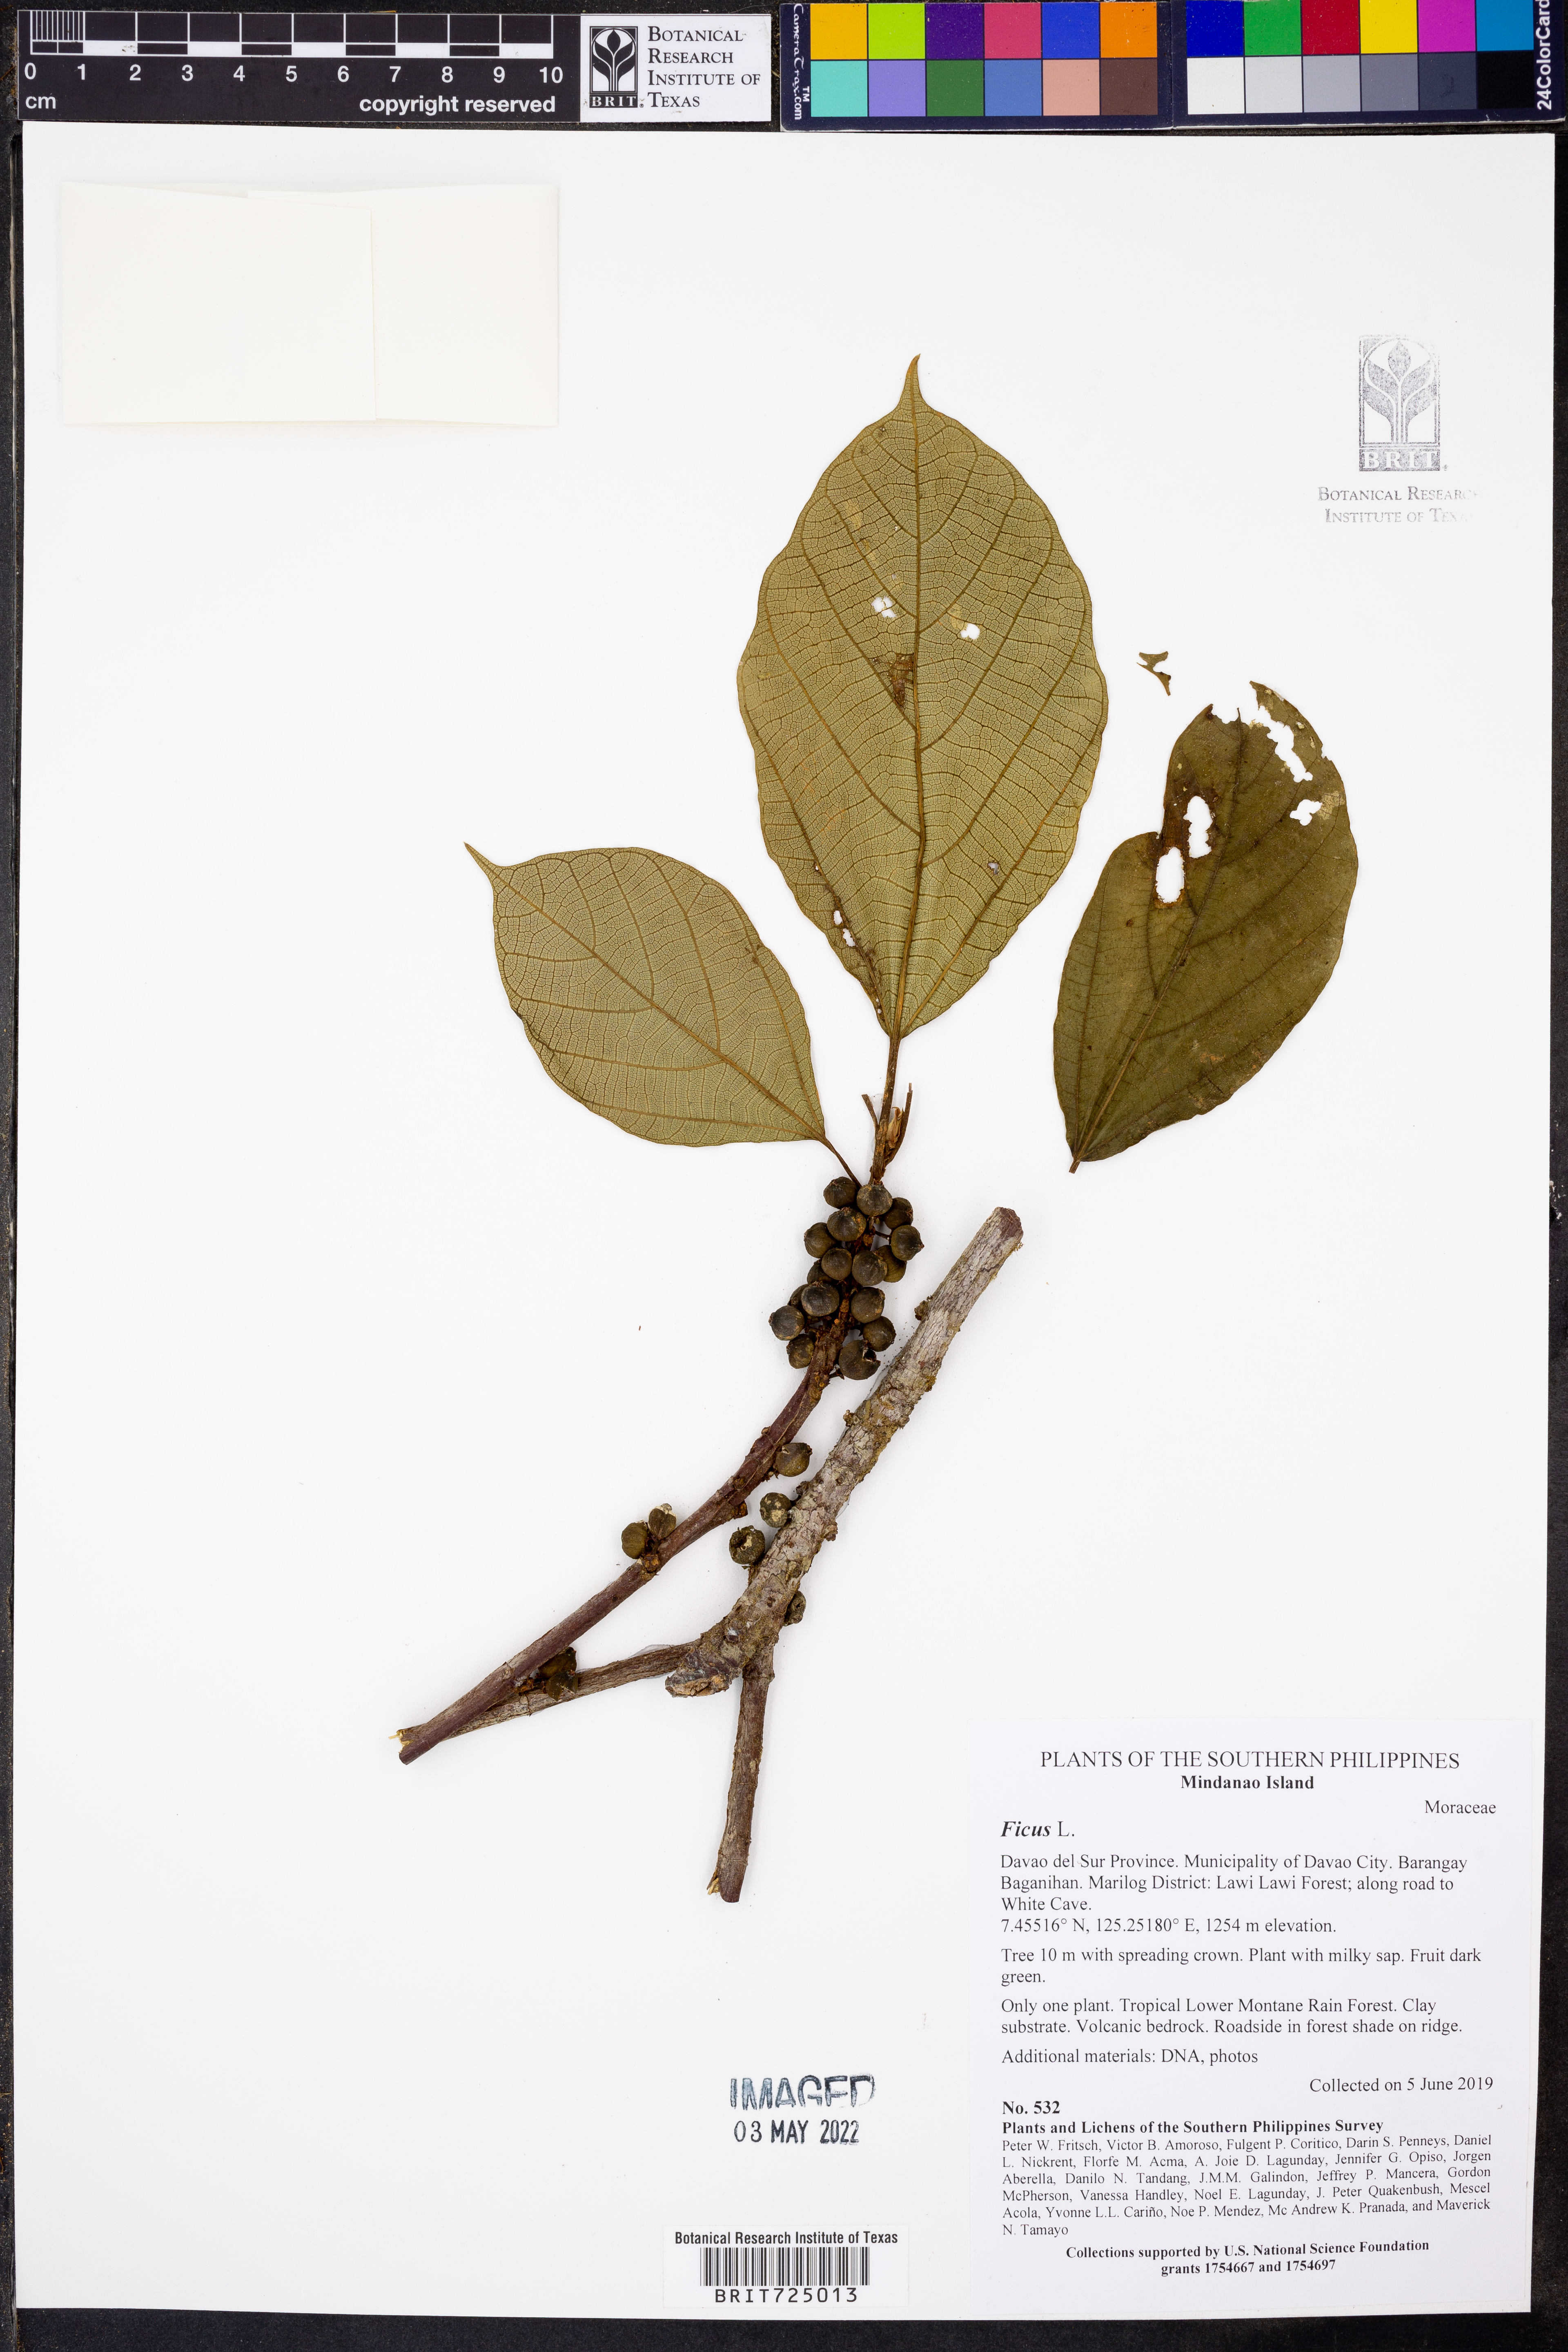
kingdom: Plantae
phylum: Tracheophyta
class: Magnoliopsida
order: Rosales
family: Moraceae
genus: Ficus
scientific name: Ficus
